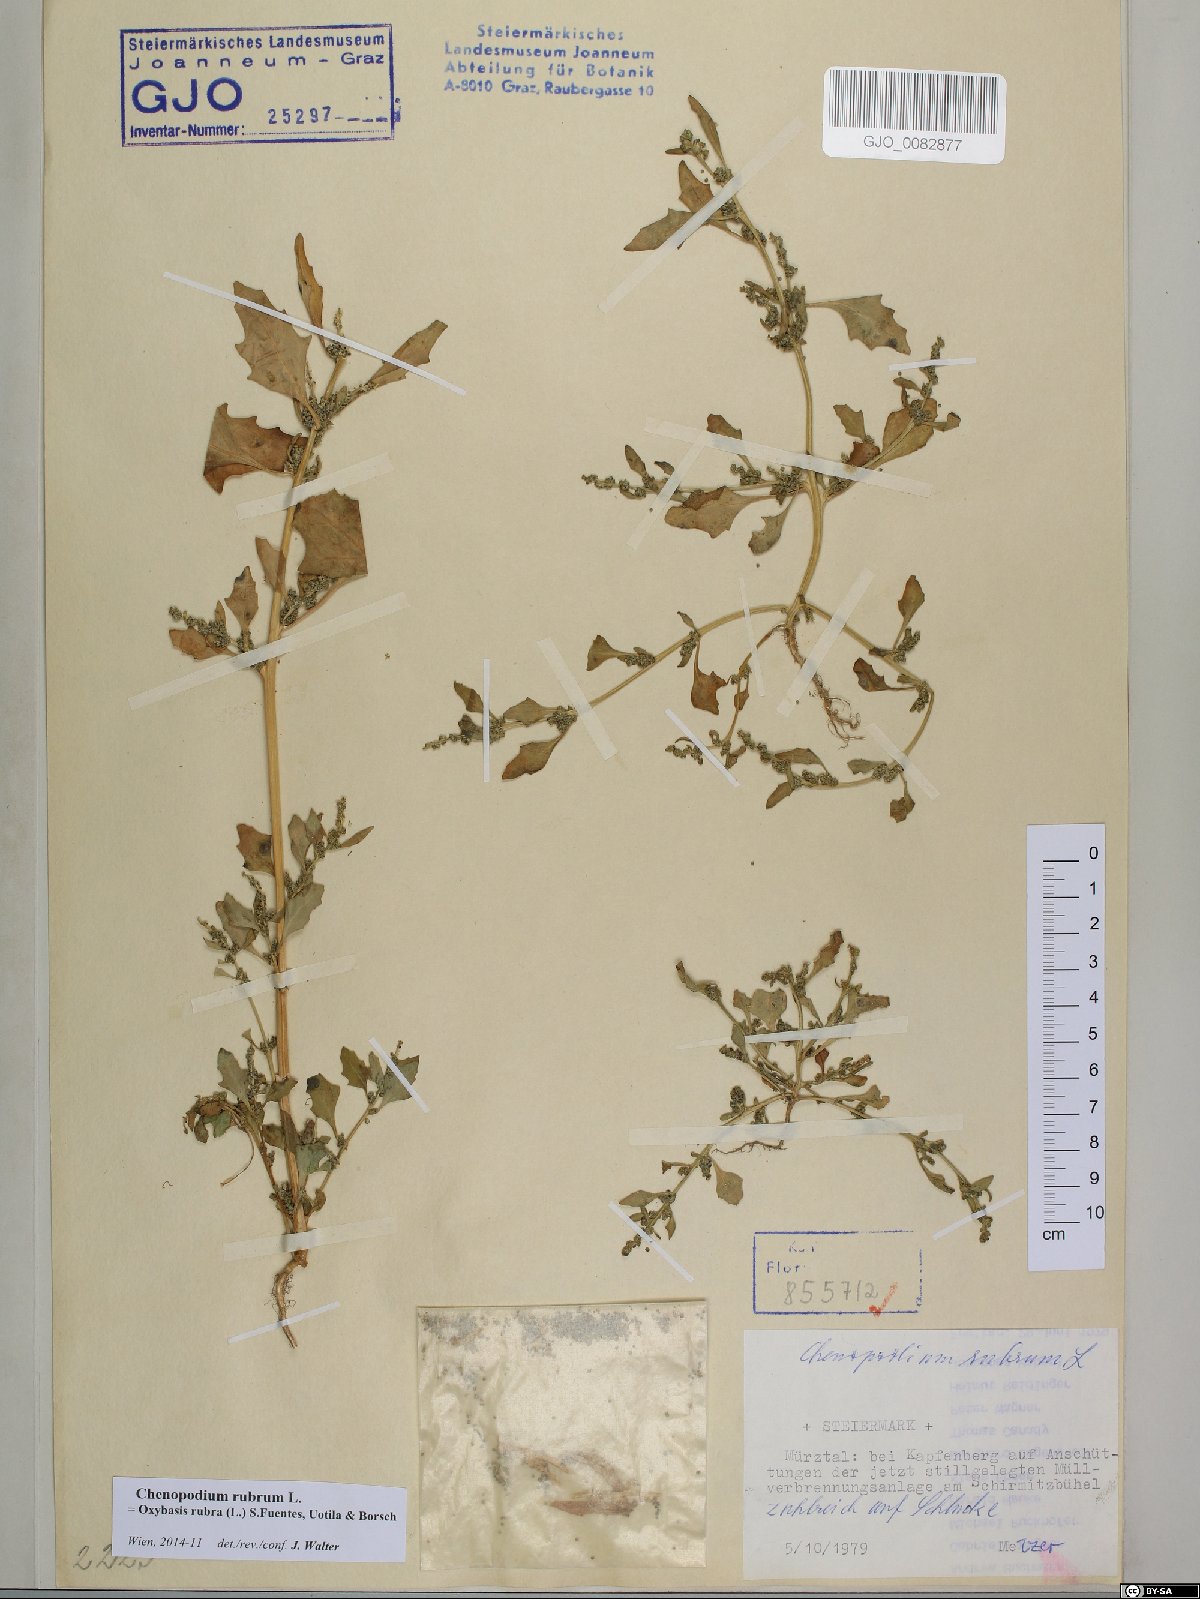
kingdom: Plantae
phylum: Tracheophyta
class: Magnoliopsida
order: Caryophyllales
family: Amaranthaceae
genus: Oxybasis
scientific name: Oxybasis rubra
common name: Red goosefoot
